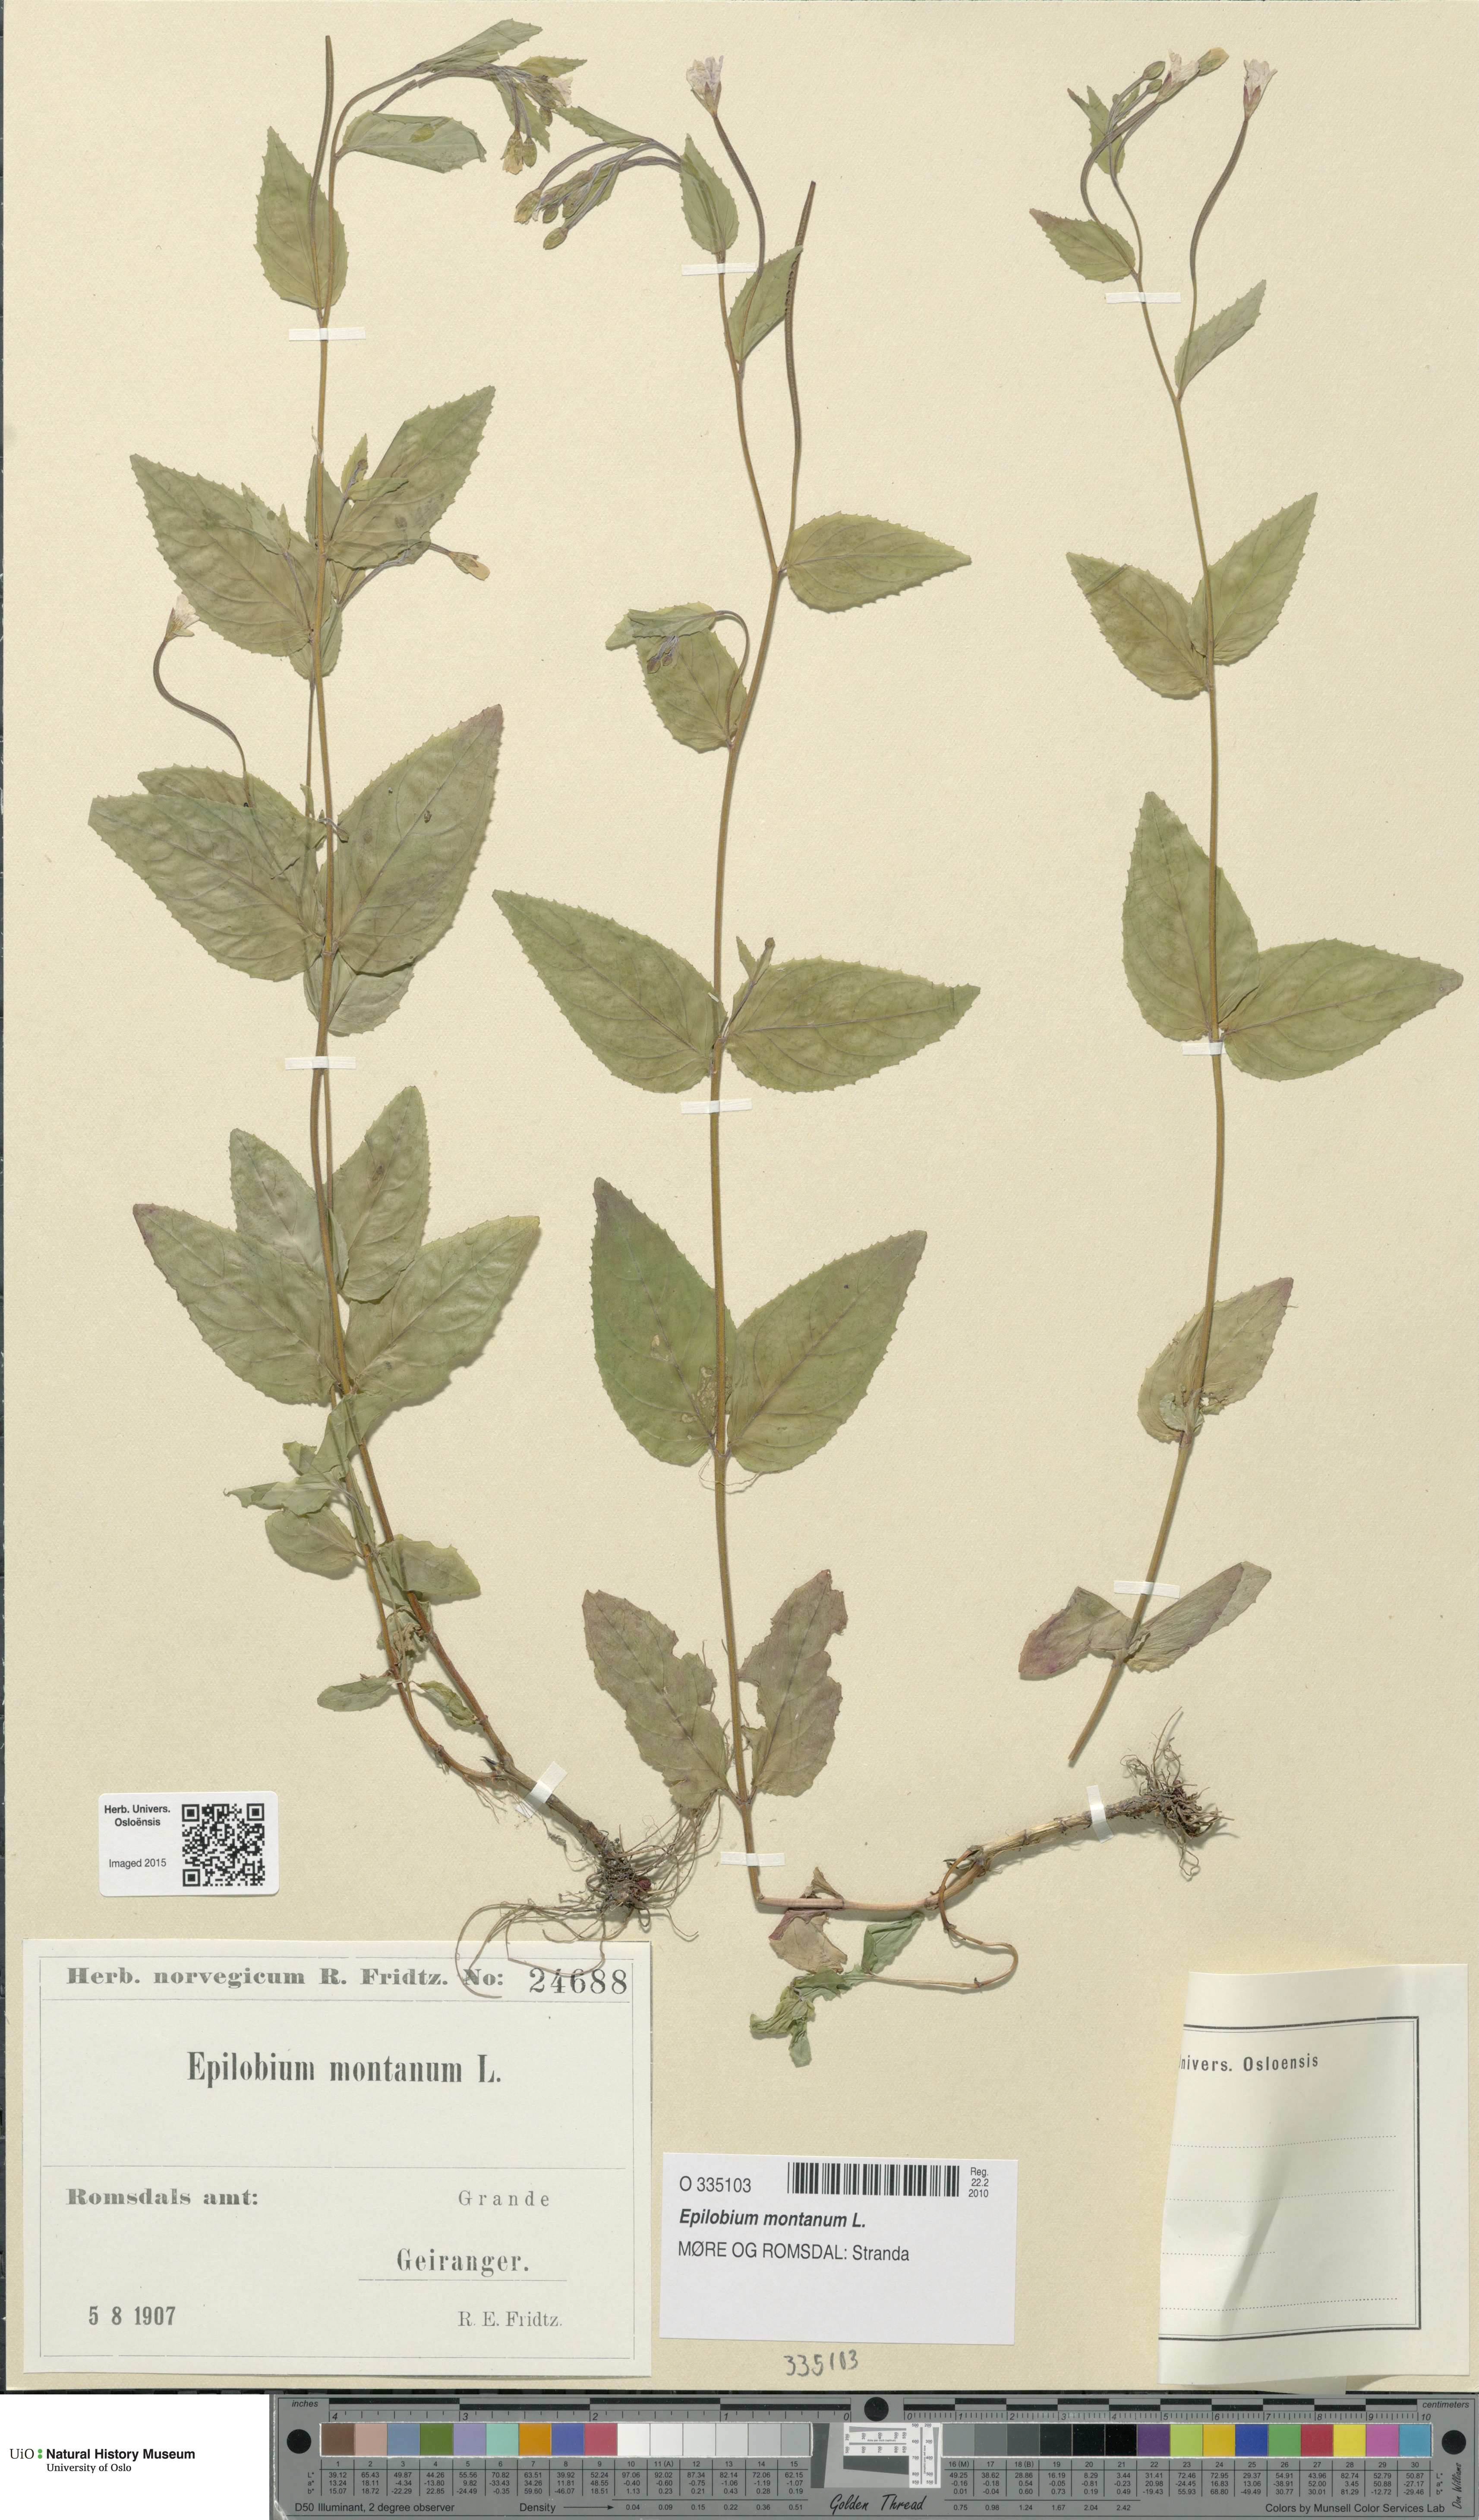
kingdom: Plantae
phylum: Tracheophyta
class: Magnoliopsida
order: Myrtales
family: Onagraceae
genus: Epilobium
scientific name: Epilobium montanum
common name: Broad-leaved willowherb
